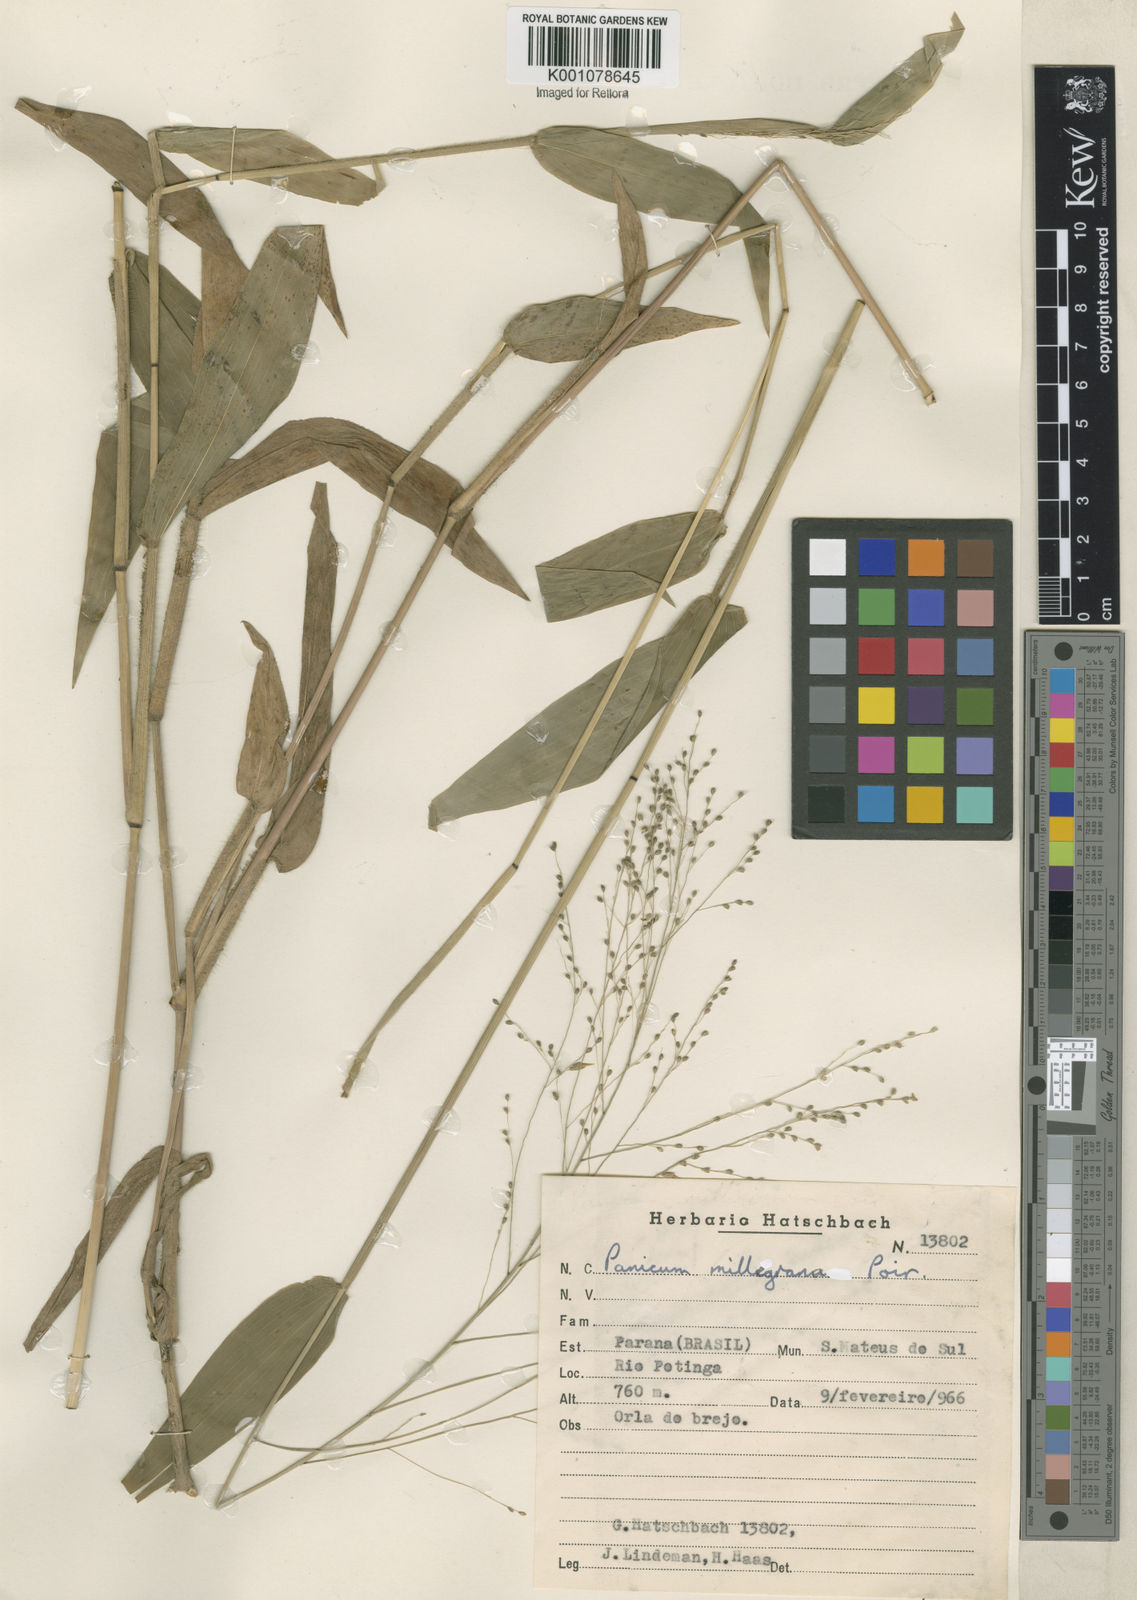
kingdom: Plantae
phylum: Tracheophyta
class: Liliopsida
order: Poales
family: Poaceae
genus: Panicum
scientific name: Panicum millegrana
